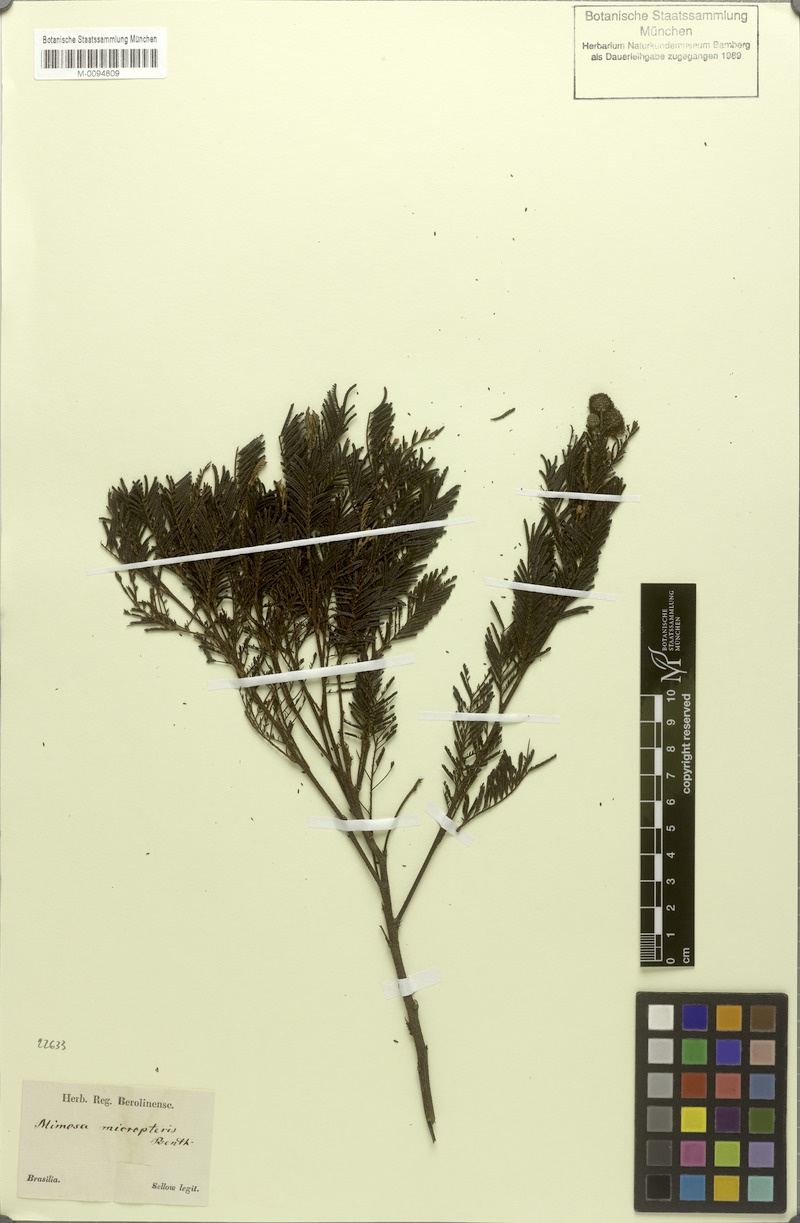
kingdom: Plantae
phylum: Tracheophyta
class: Magnoliopsida
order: Fabales
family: Fabaceae
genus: Mimosa
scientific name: Mimosa micropteris
